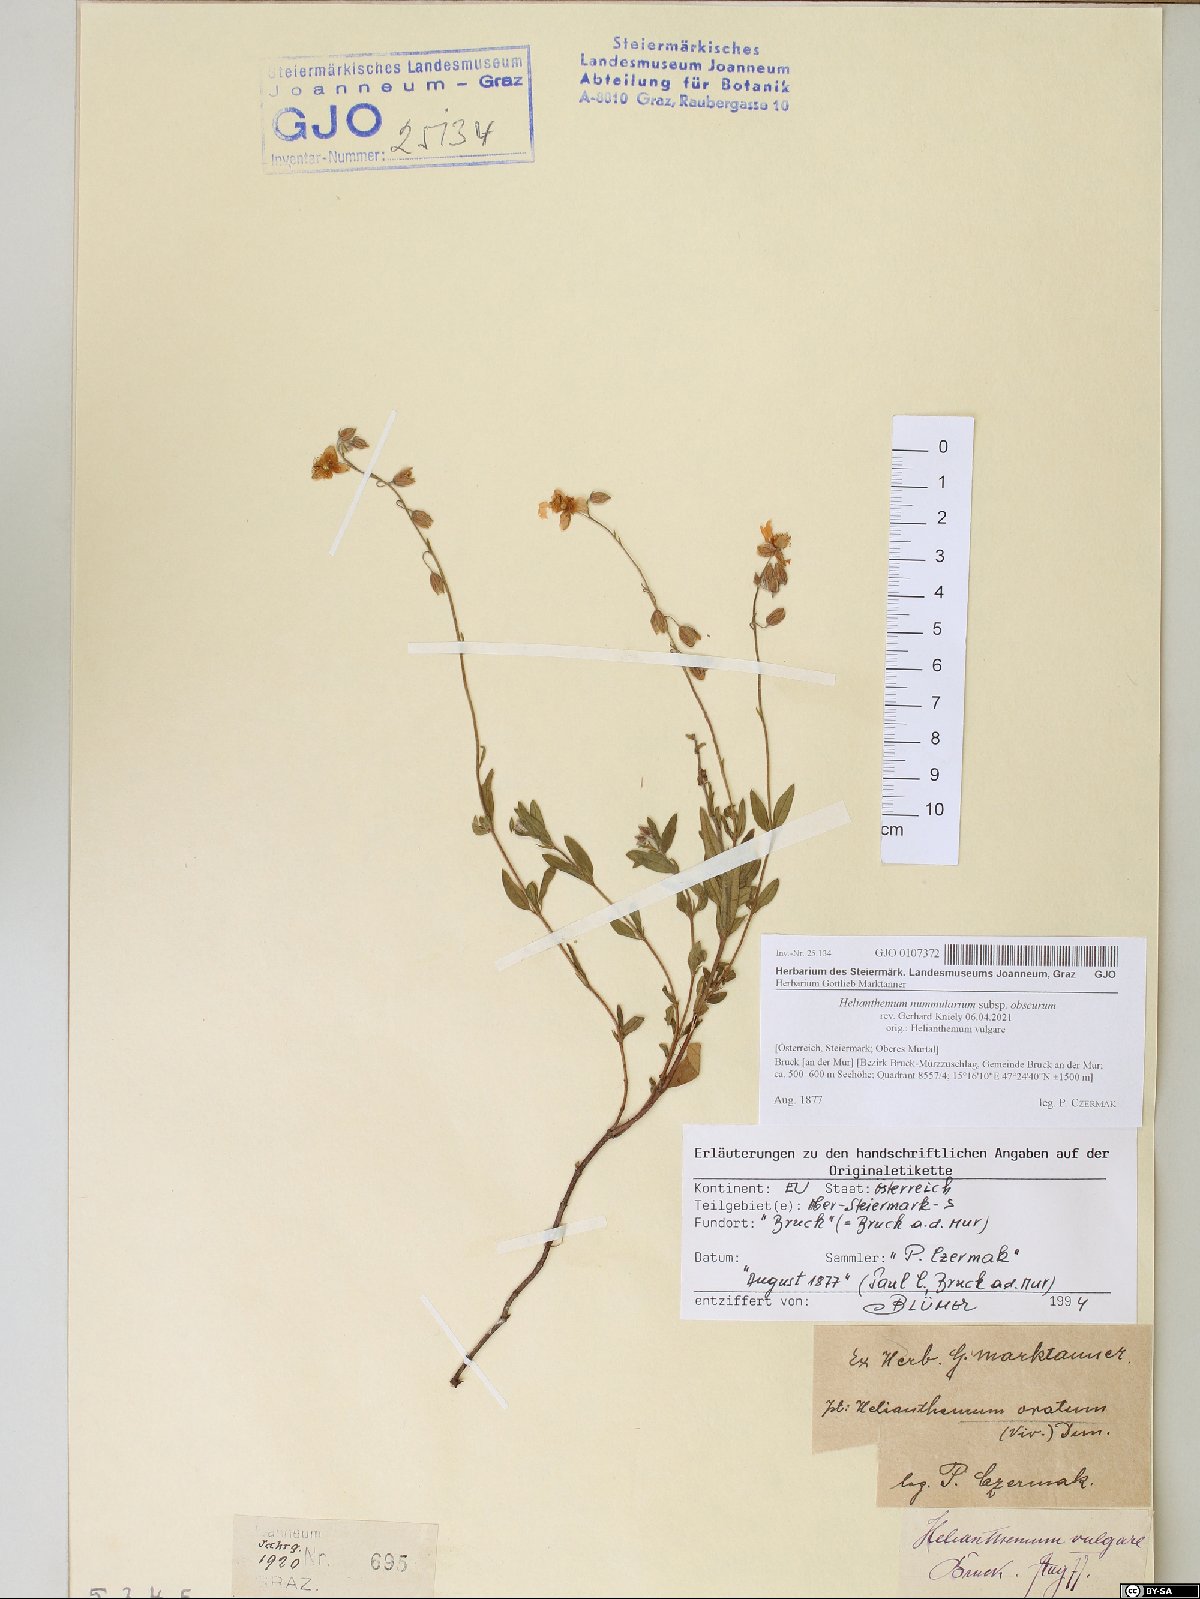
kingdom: Plantae
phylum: Tracheophyta
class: Magnoliopsida
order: Malvales
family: Cistaceae
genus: Helianthemum
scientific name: Helianthemum nummularium
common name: Common rock-rose
